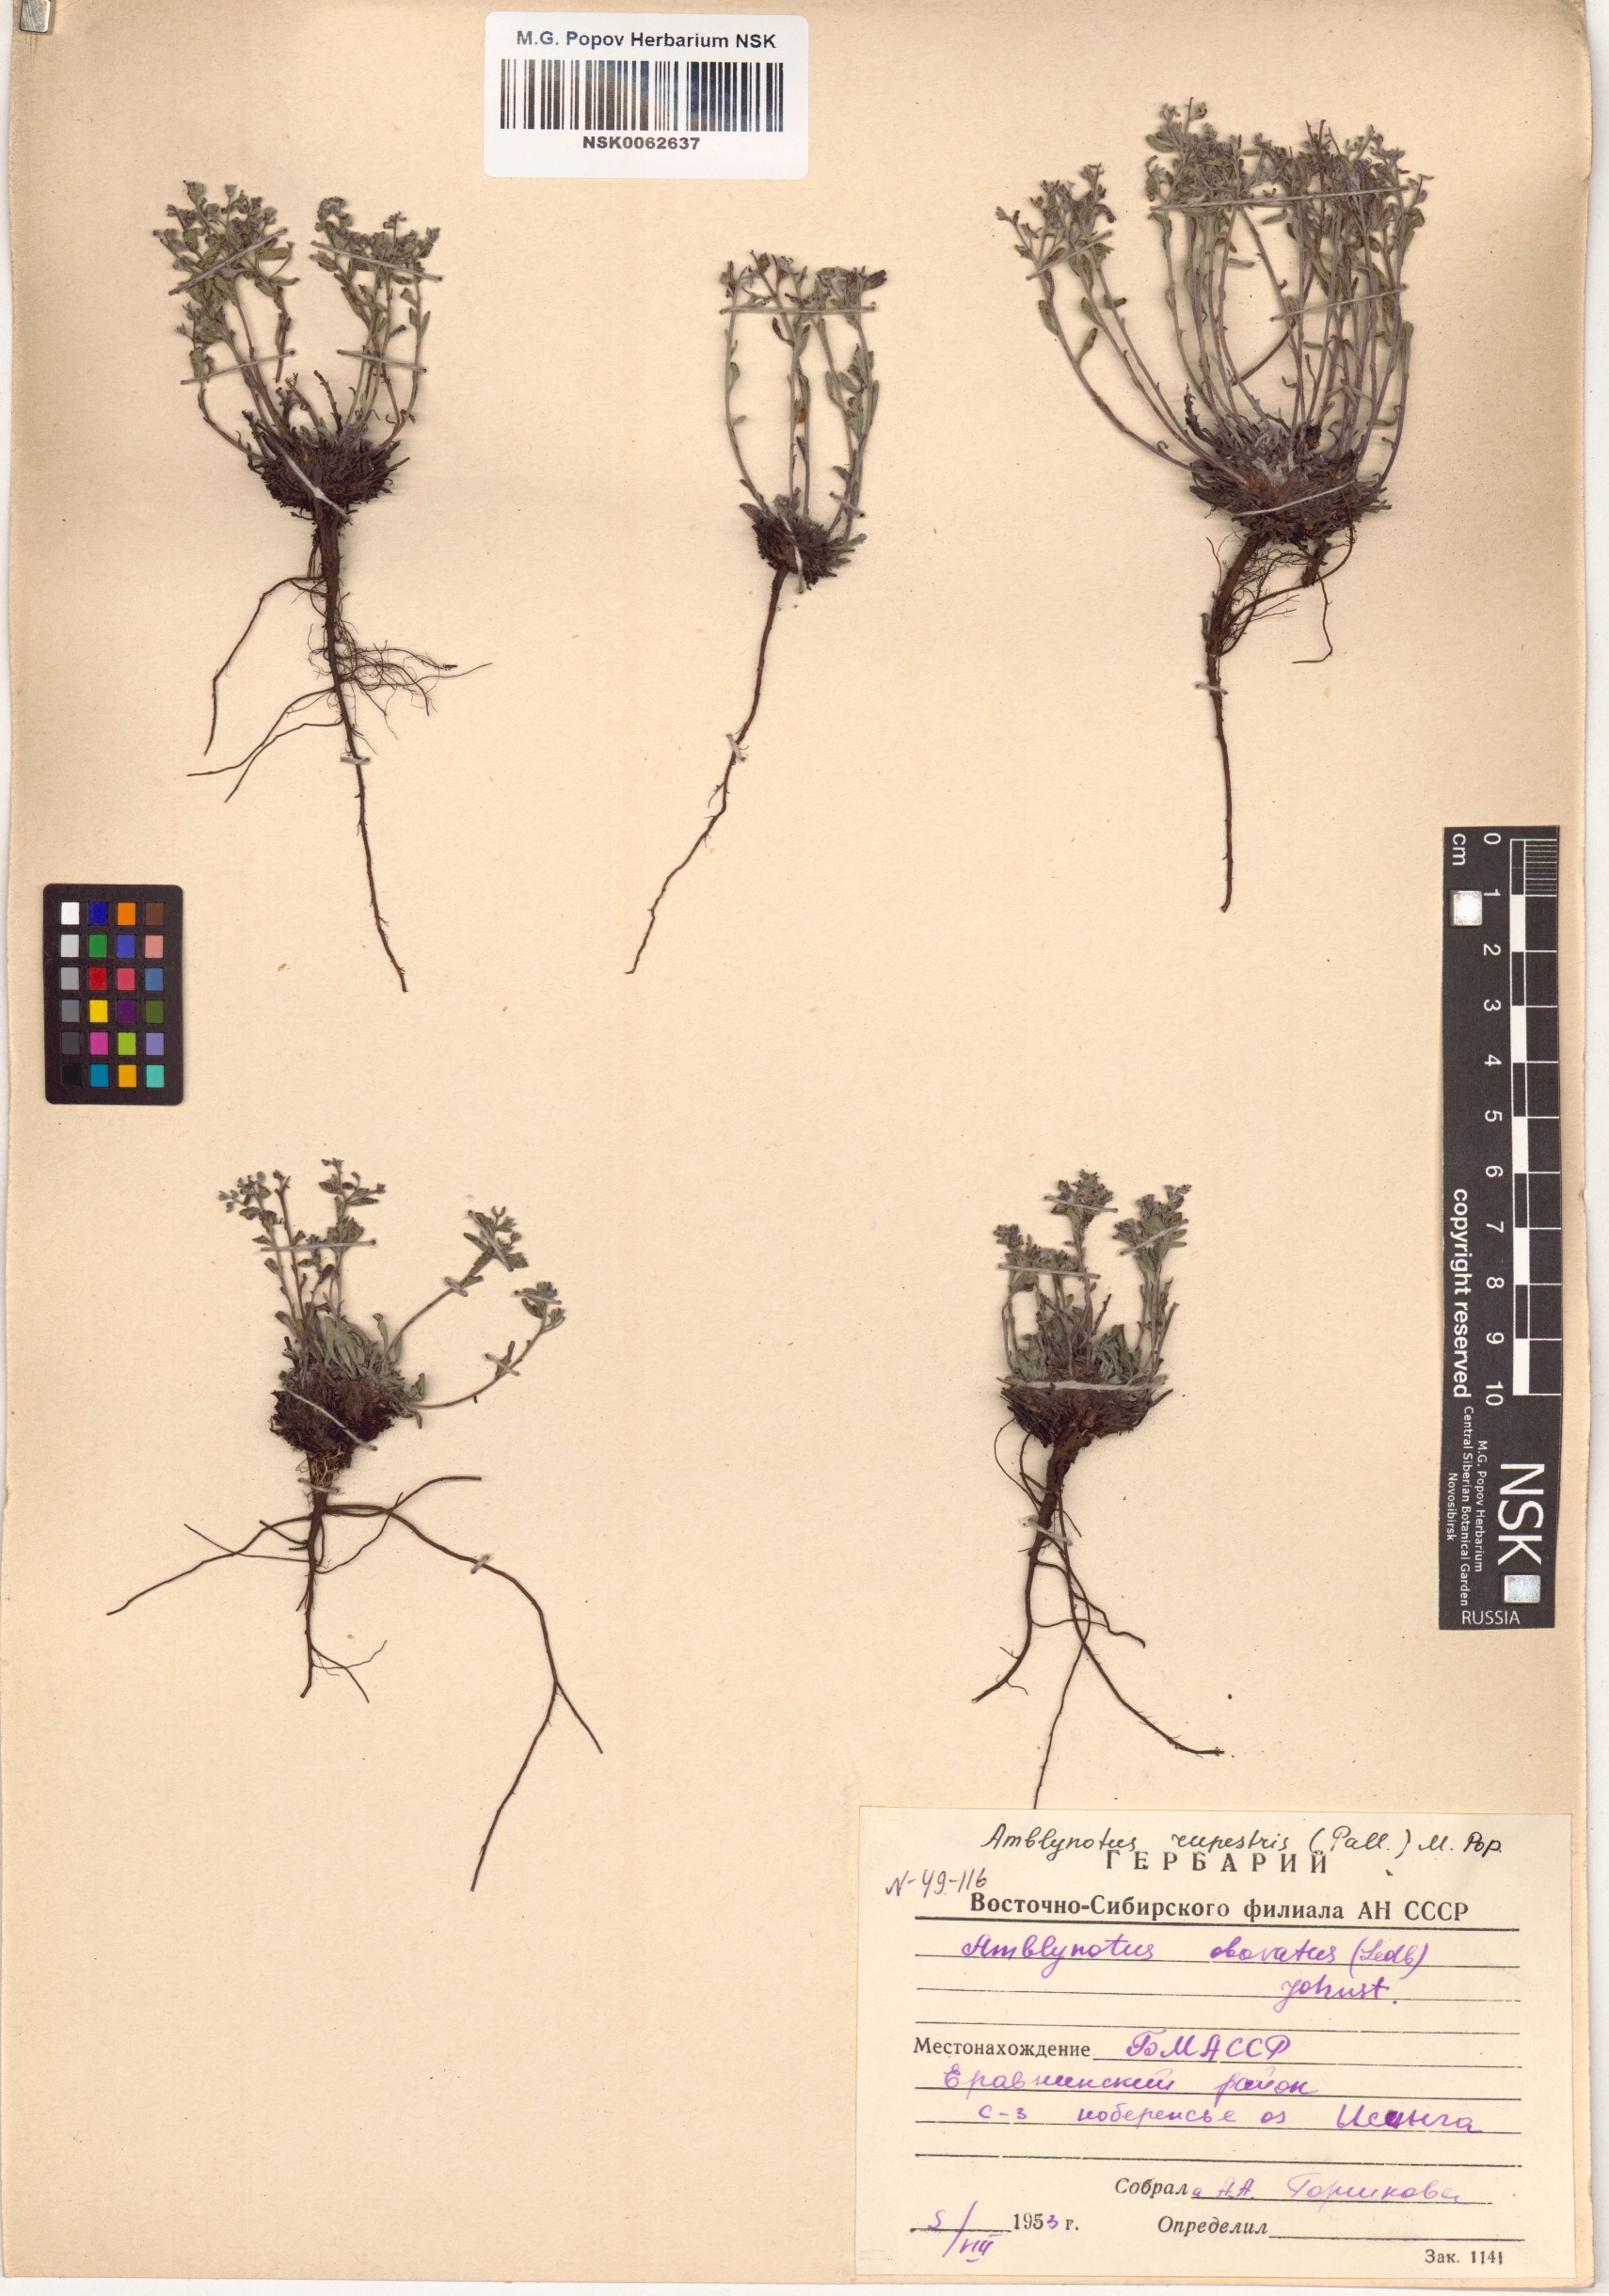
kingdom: Plantae
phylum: Tracheophyta
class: Magnoliopsida
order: Boraginales
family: Boraginaceae
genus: Eritrichium
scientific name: Eritrichium rupestre
